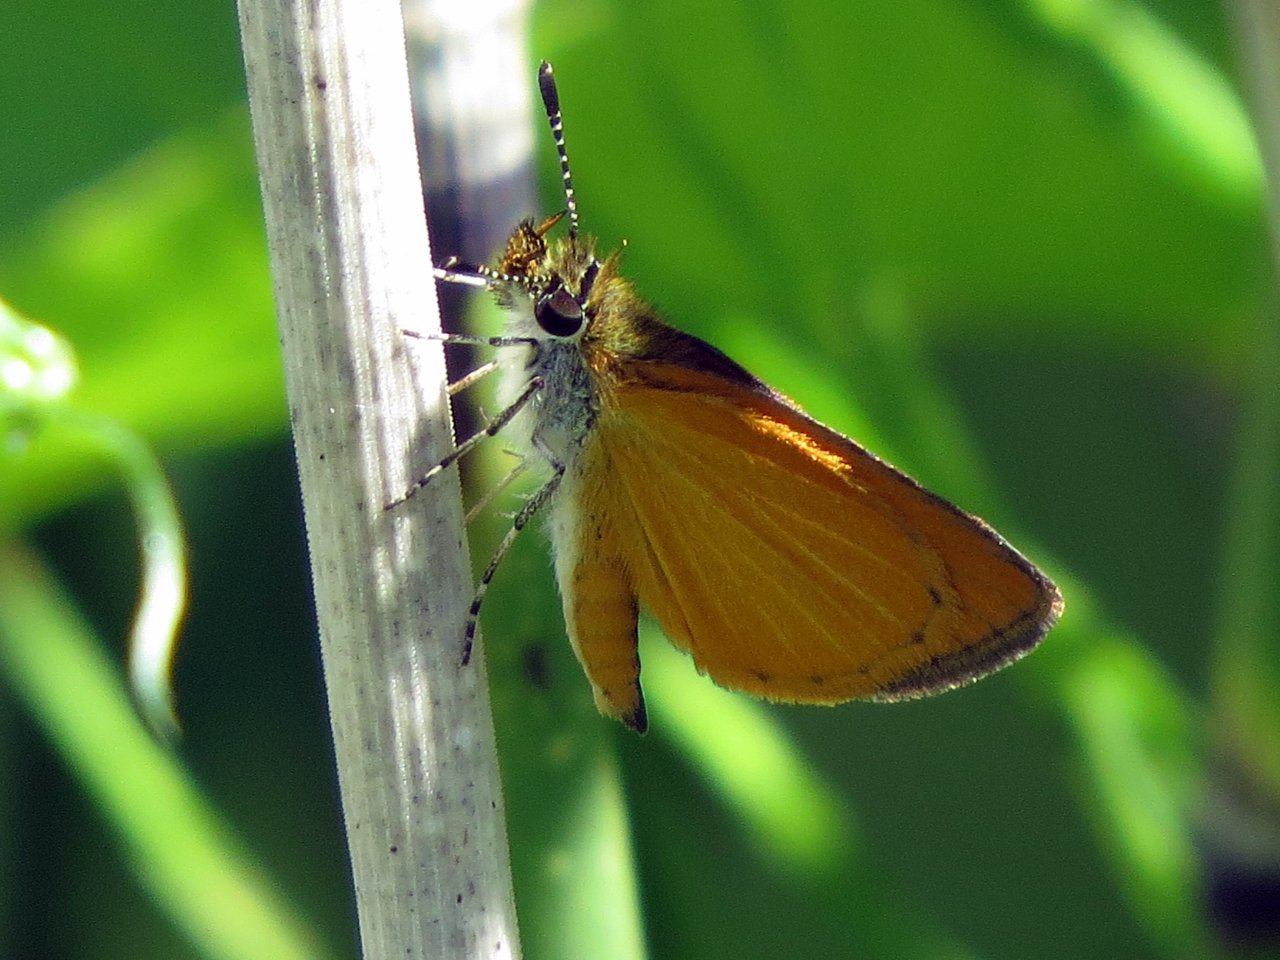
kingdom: Animalia
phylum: Arthropoda
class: Insecta
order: Lepidoptera
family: Hesperiidae
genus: Ancyloxypha
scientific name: Ancyloxypha numitor
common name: Least Skipper
